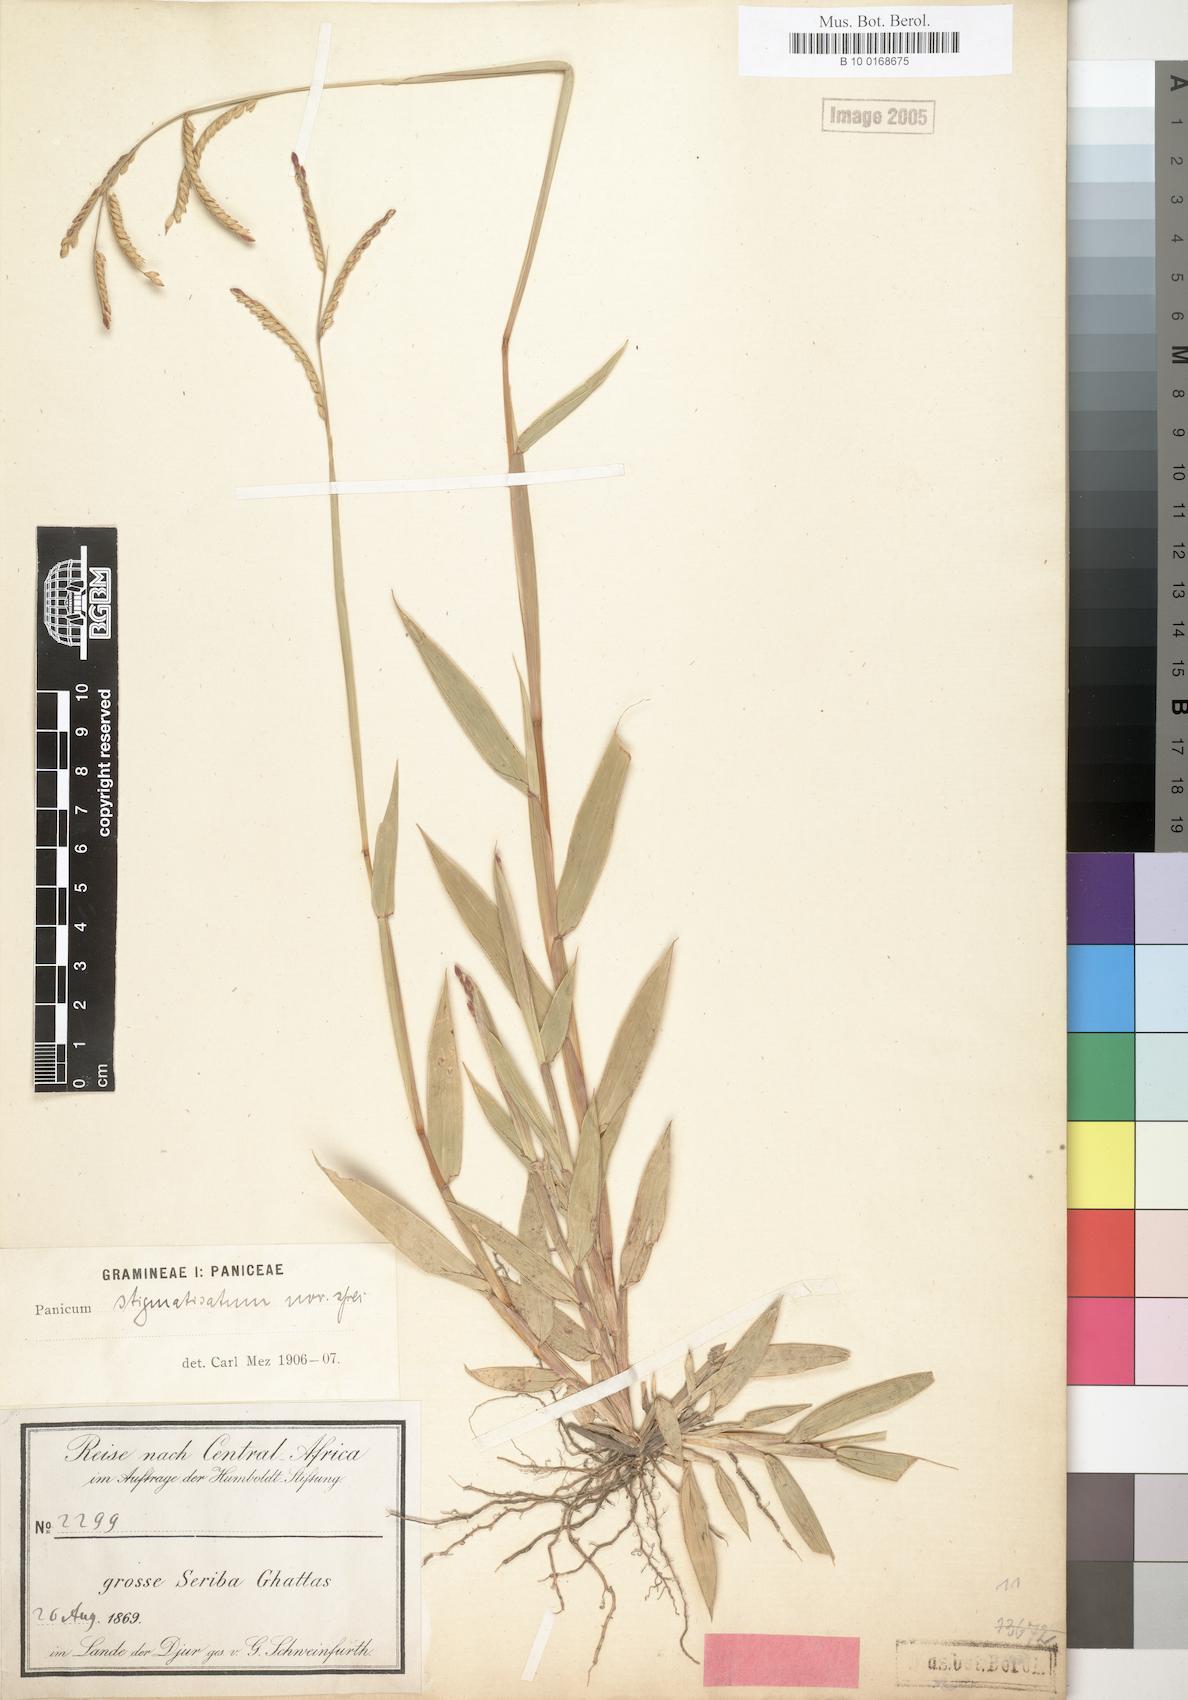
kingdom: Plantae
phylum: Tracheophyta
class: Liliopsida
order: Poales
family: Poaceae
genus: Urochloa
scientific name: Urochloa stigmatisata
